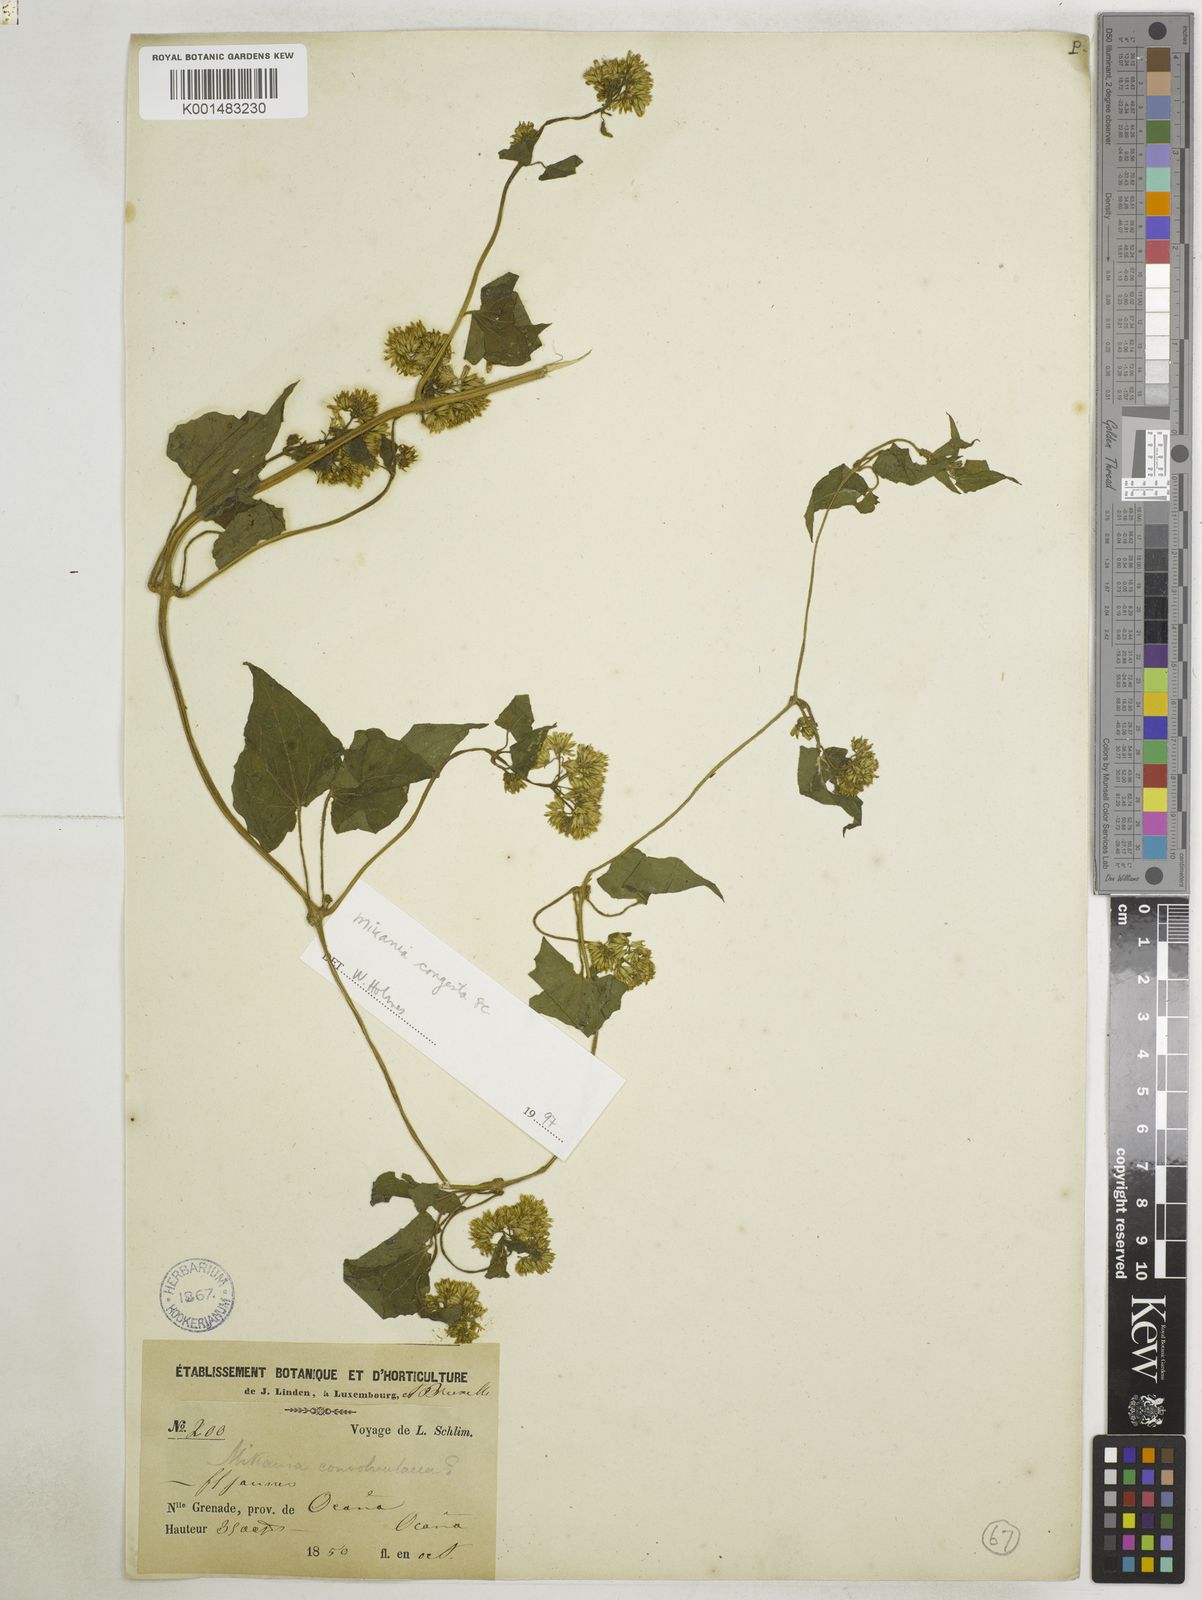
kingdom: Plantae
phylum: Tracheophyta
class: Magnoliopsida
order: Asterales
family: Asteraceae
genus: Mikania
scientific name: Mikania congesta
